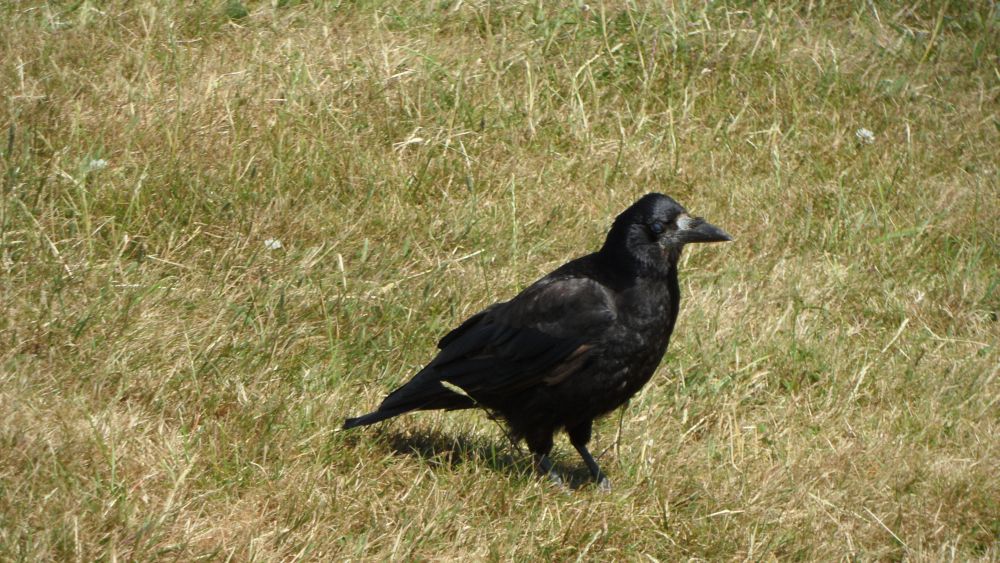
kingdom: Animalia
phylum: Chordata
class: Aves
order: Passeriformes
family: Corvidae
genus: Corvus
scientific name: Corvus frugilegus
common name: Rook
